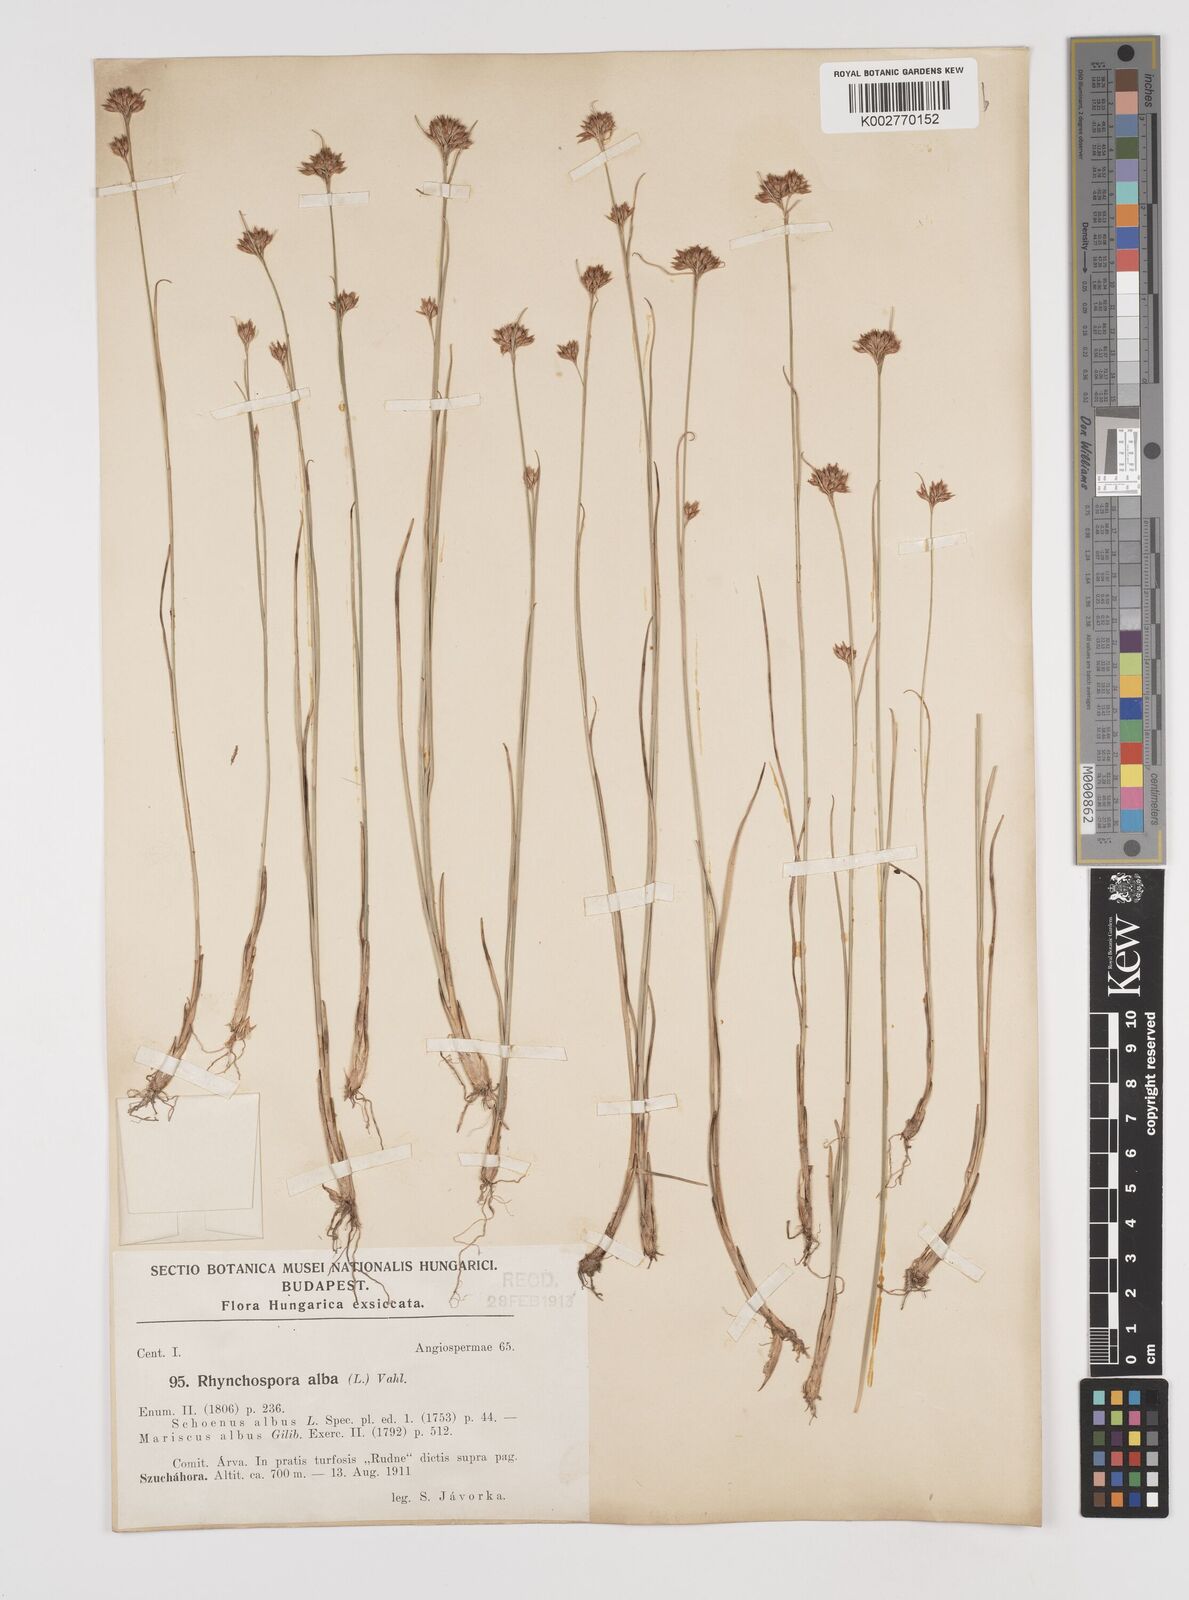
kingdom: Plantae
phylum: Tracheophyta
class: Liliopsida
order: Poales
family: Cyperaceae
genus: Rhynchospora
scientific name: Rhynchospora alba
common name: White beak-sedge
